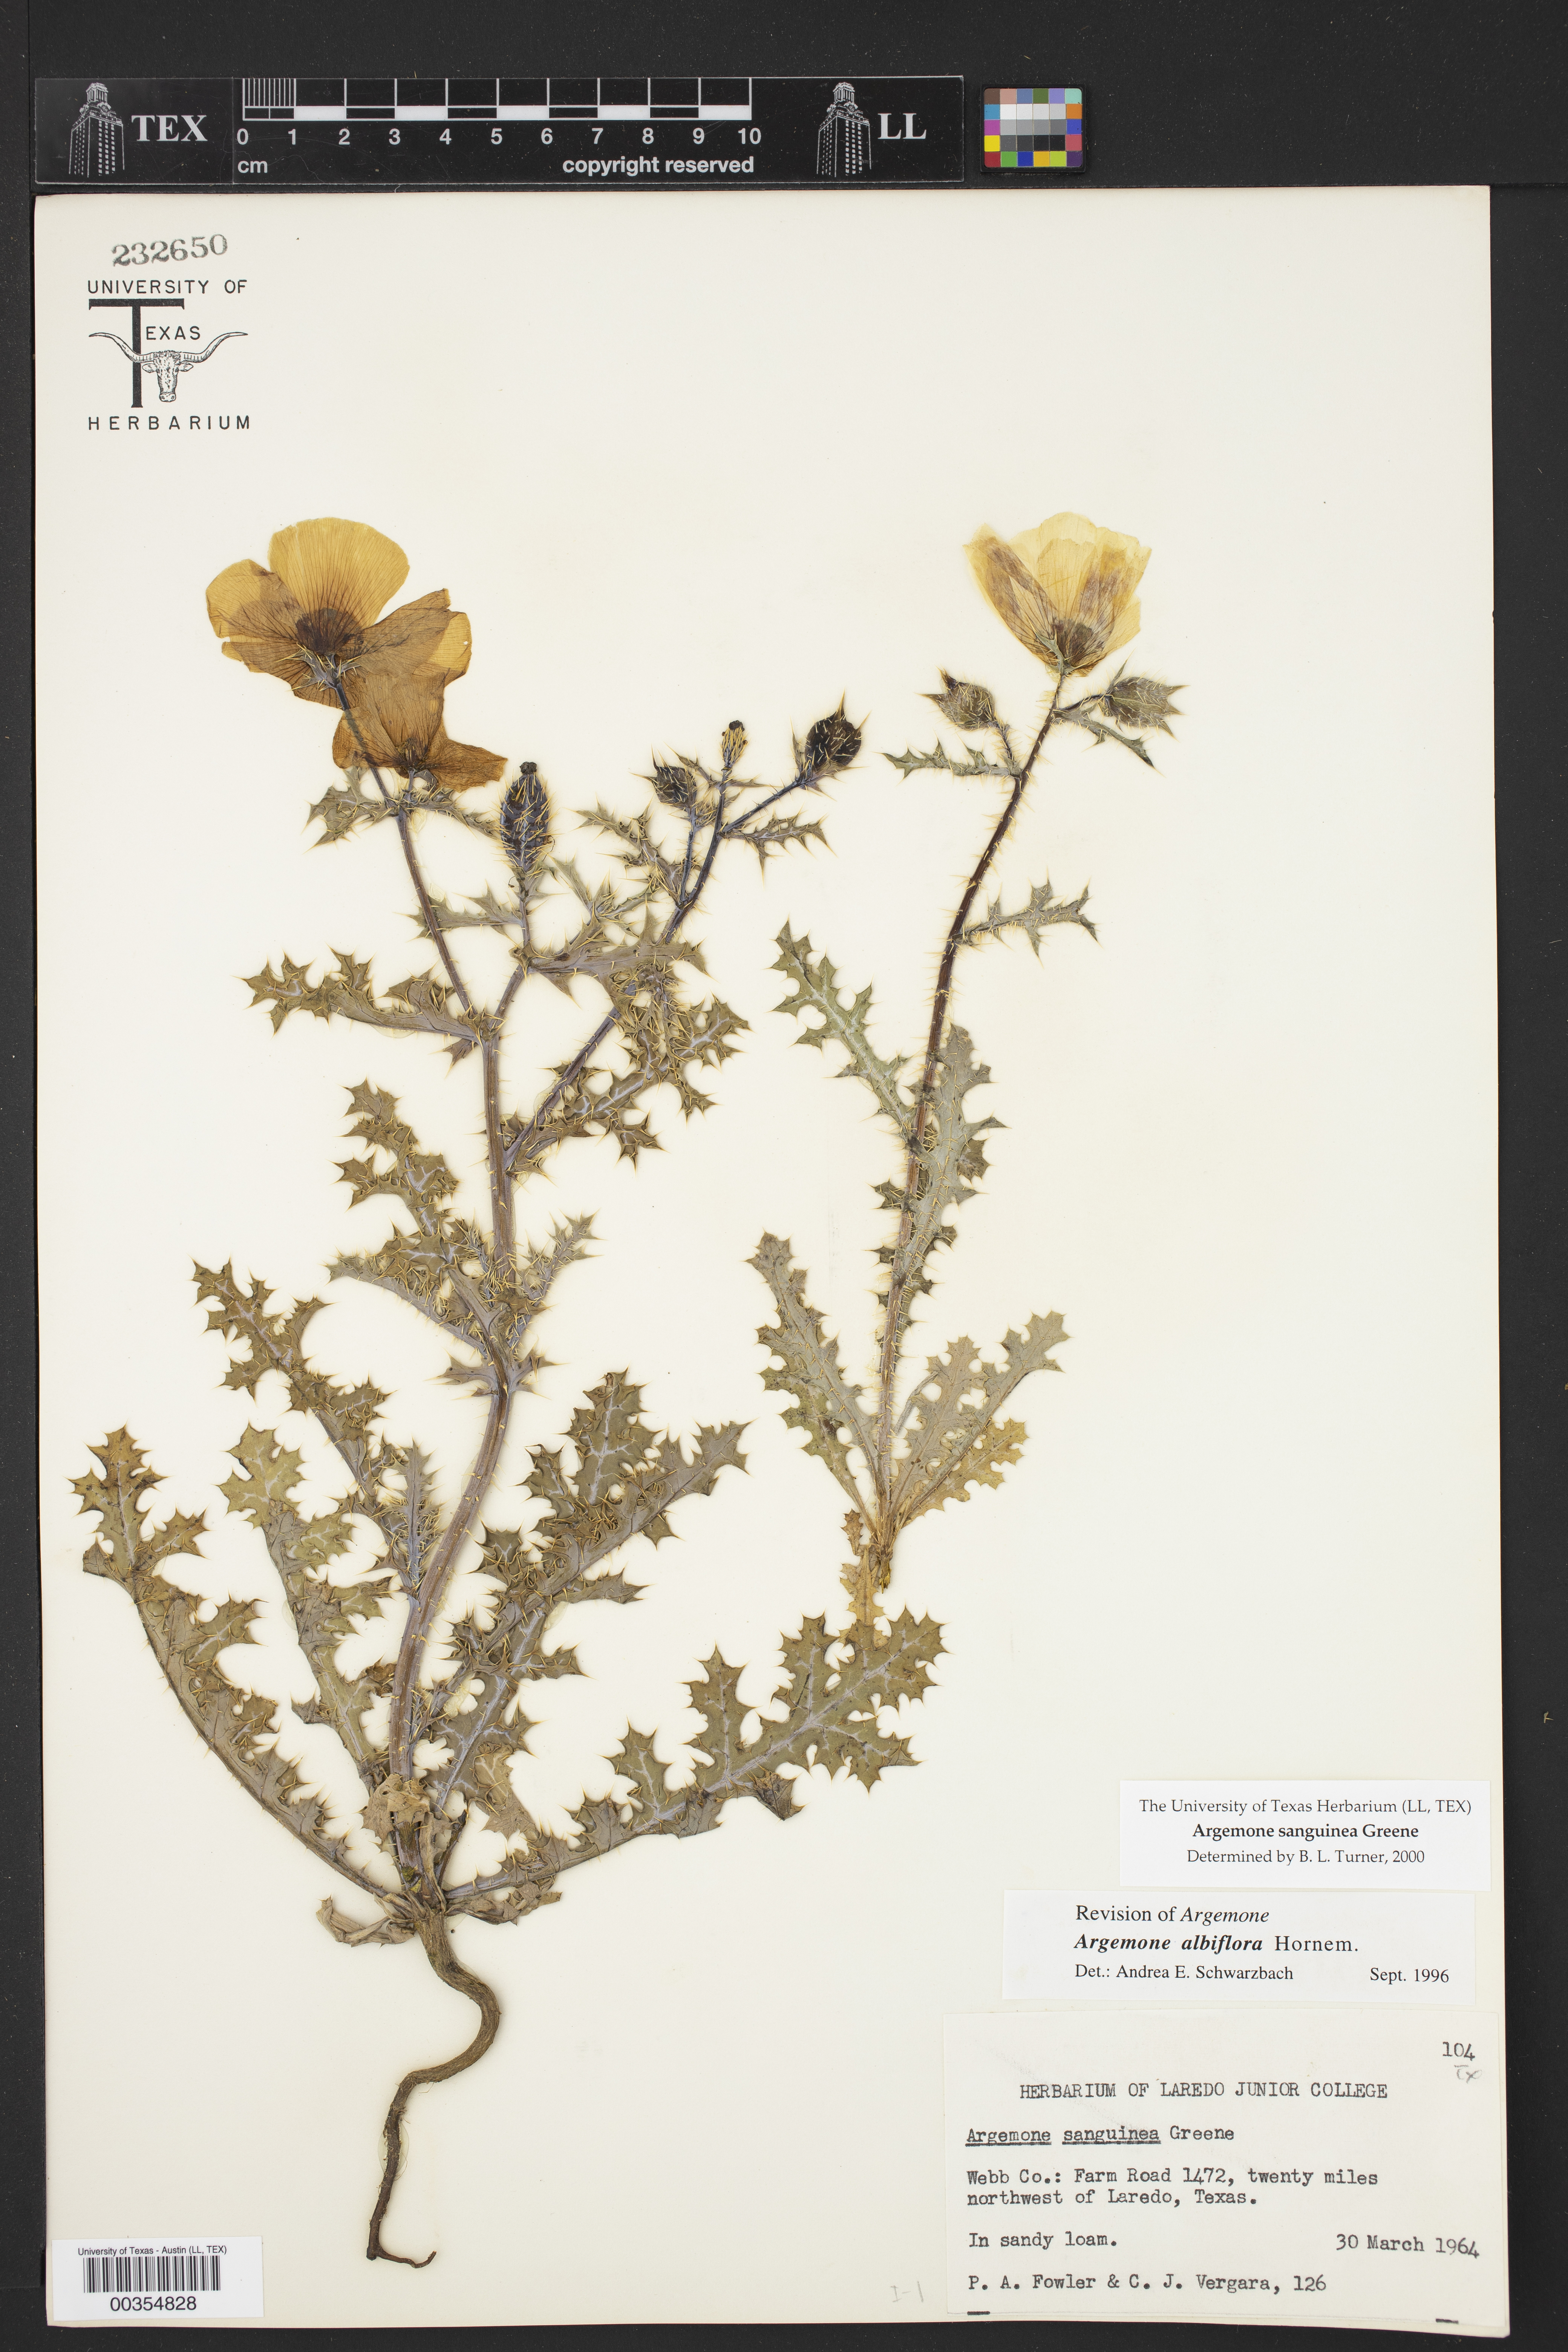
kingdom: Plantae
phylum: Tracheophyta
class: Magnoliopsida
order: Ranunculales
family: Papaveraceae
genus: Argemone
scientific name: Argemone sanguinea
